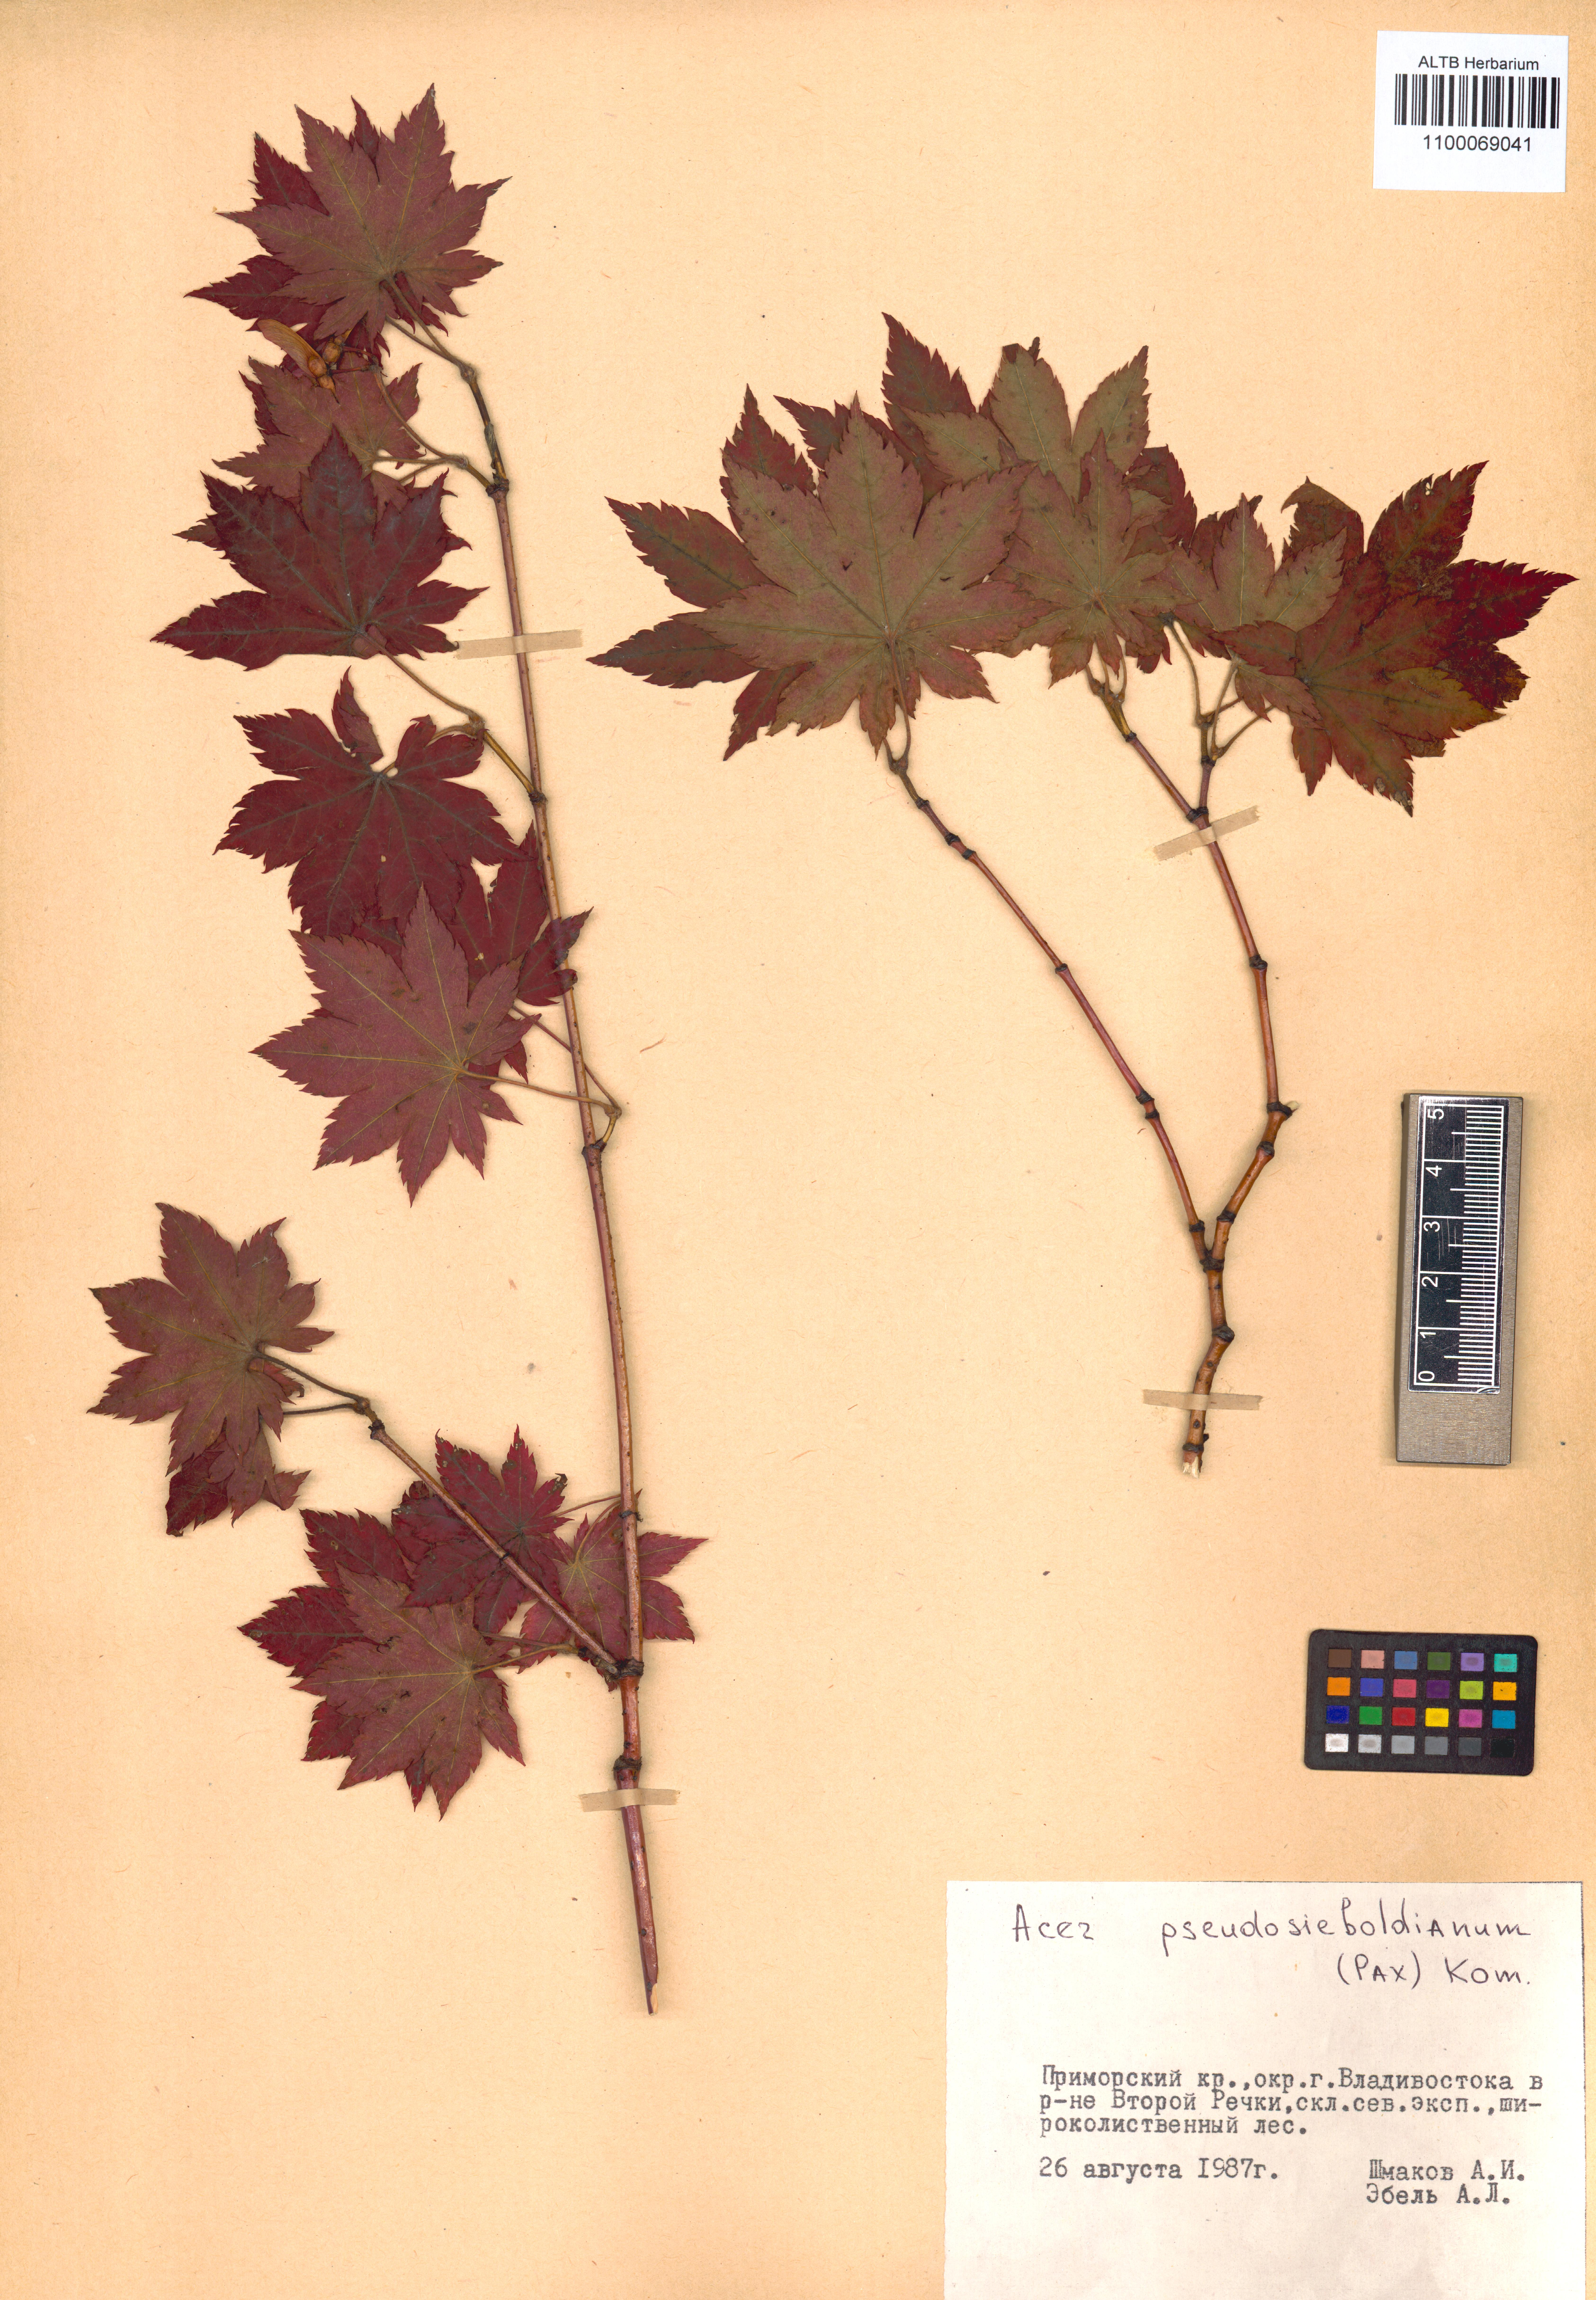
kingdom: Plantae
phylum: Tracheophyta
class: Magnoliopsida
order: Sapindales
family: Sapindaceae
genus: Acer
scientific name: Acer pseudosieboldianum
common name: Korean maple
